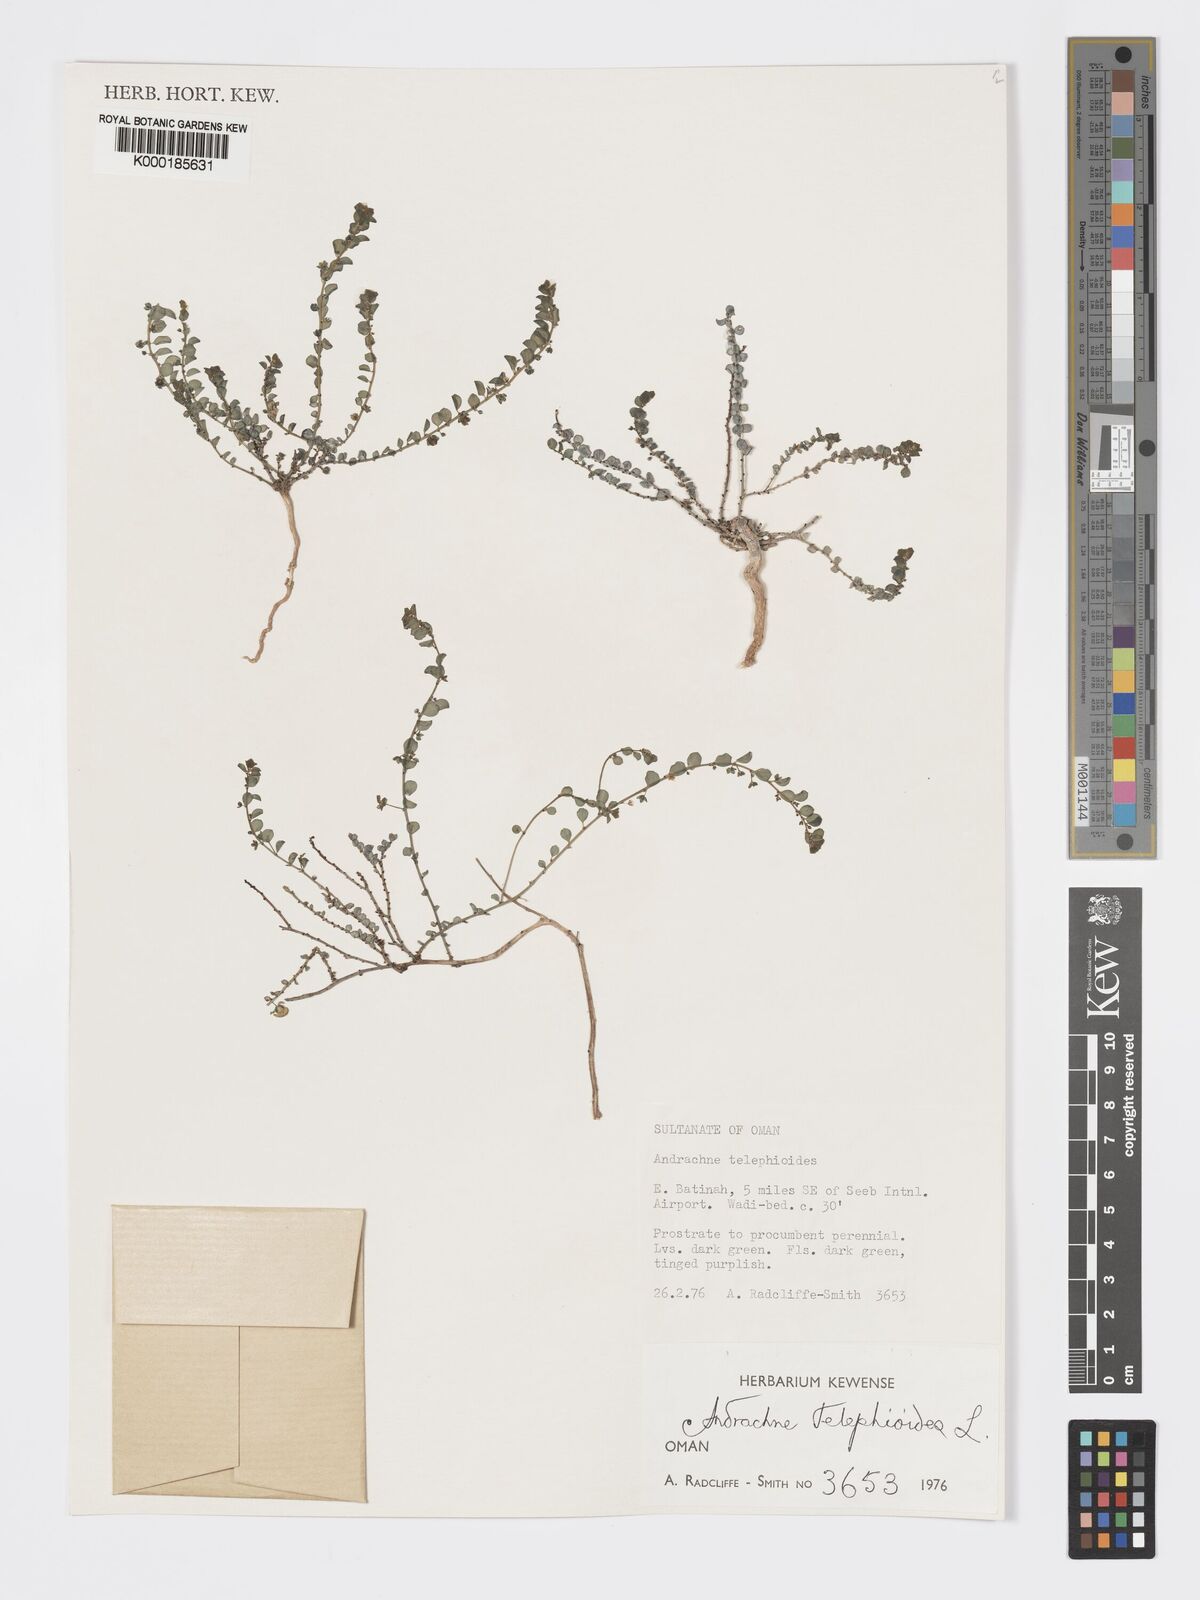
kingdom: Plantae
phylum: Tracheophyta
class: Magnoliopsida
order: Malpighiales
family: Phyllanthaceae
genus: Andrachne
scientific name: Andrachne telephioides
